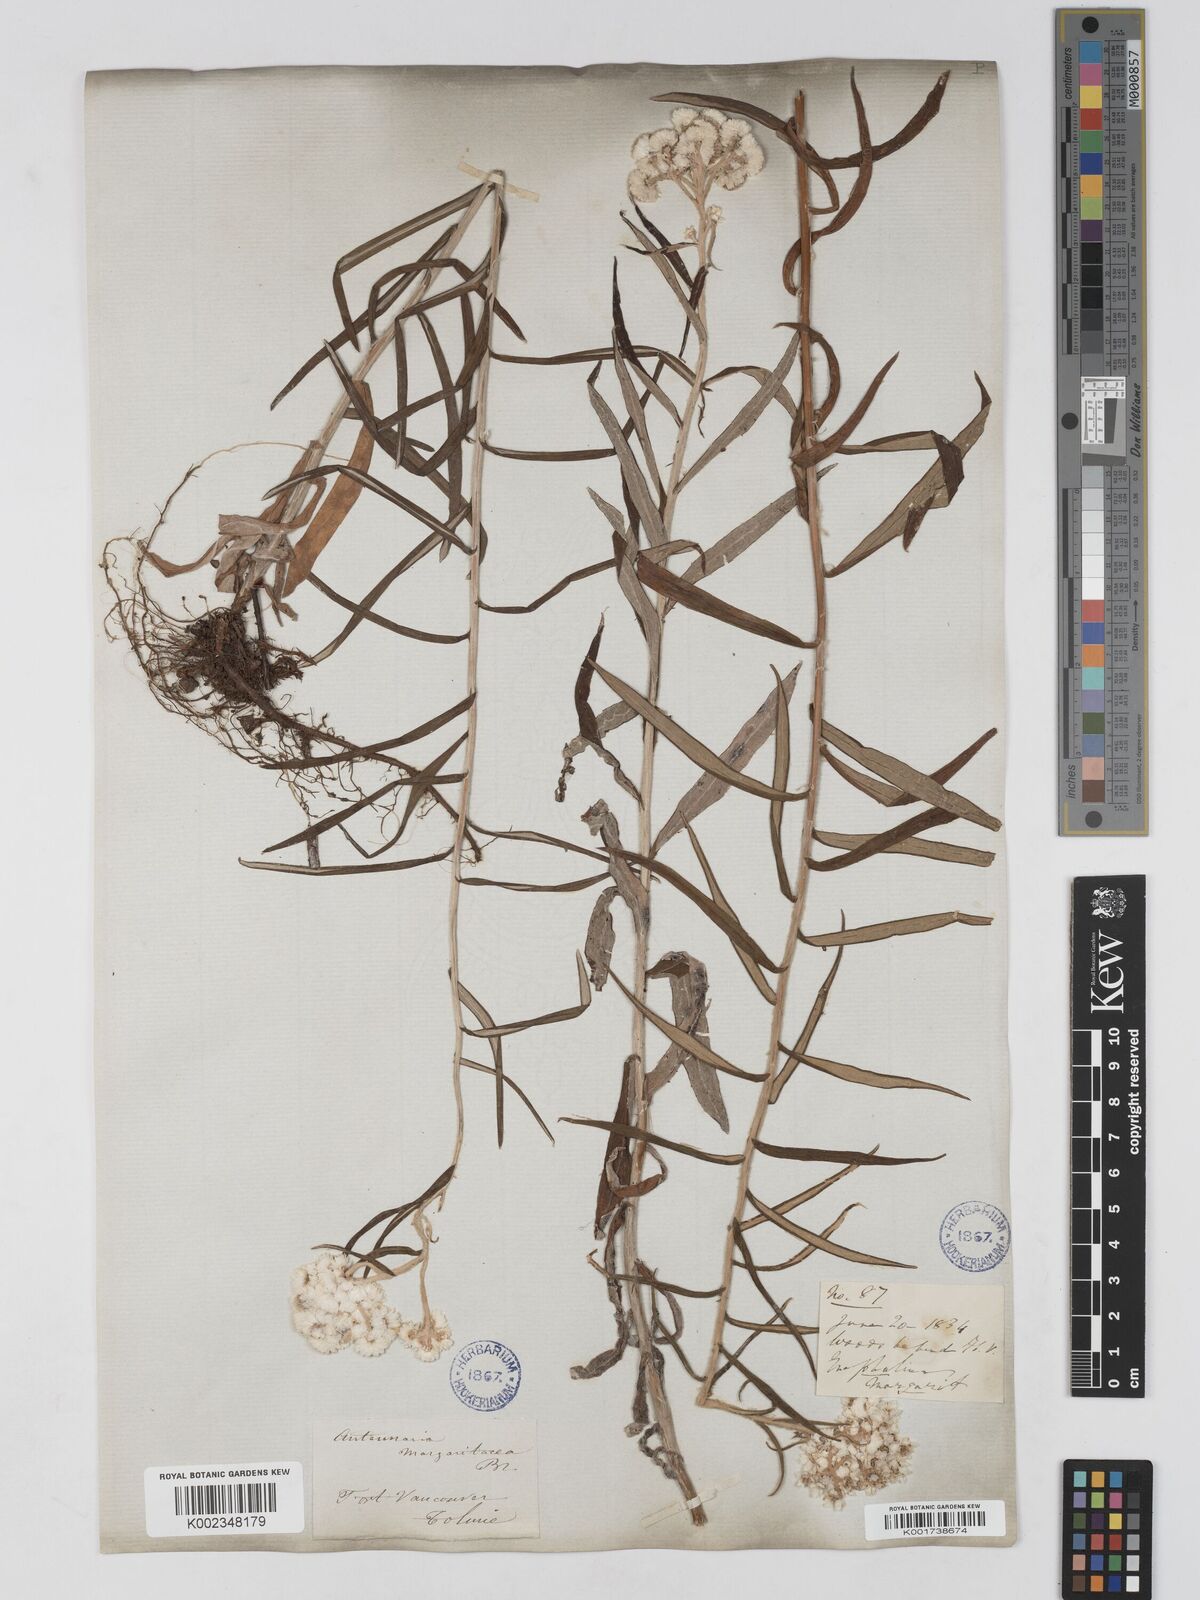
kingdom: Plantae
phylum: Tracheophyta
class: Magnoliopsida
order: Asterales
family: Asteraceae
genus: Anaphalis
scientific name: Anaphalis margaritacea
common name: Pearly everlasting
